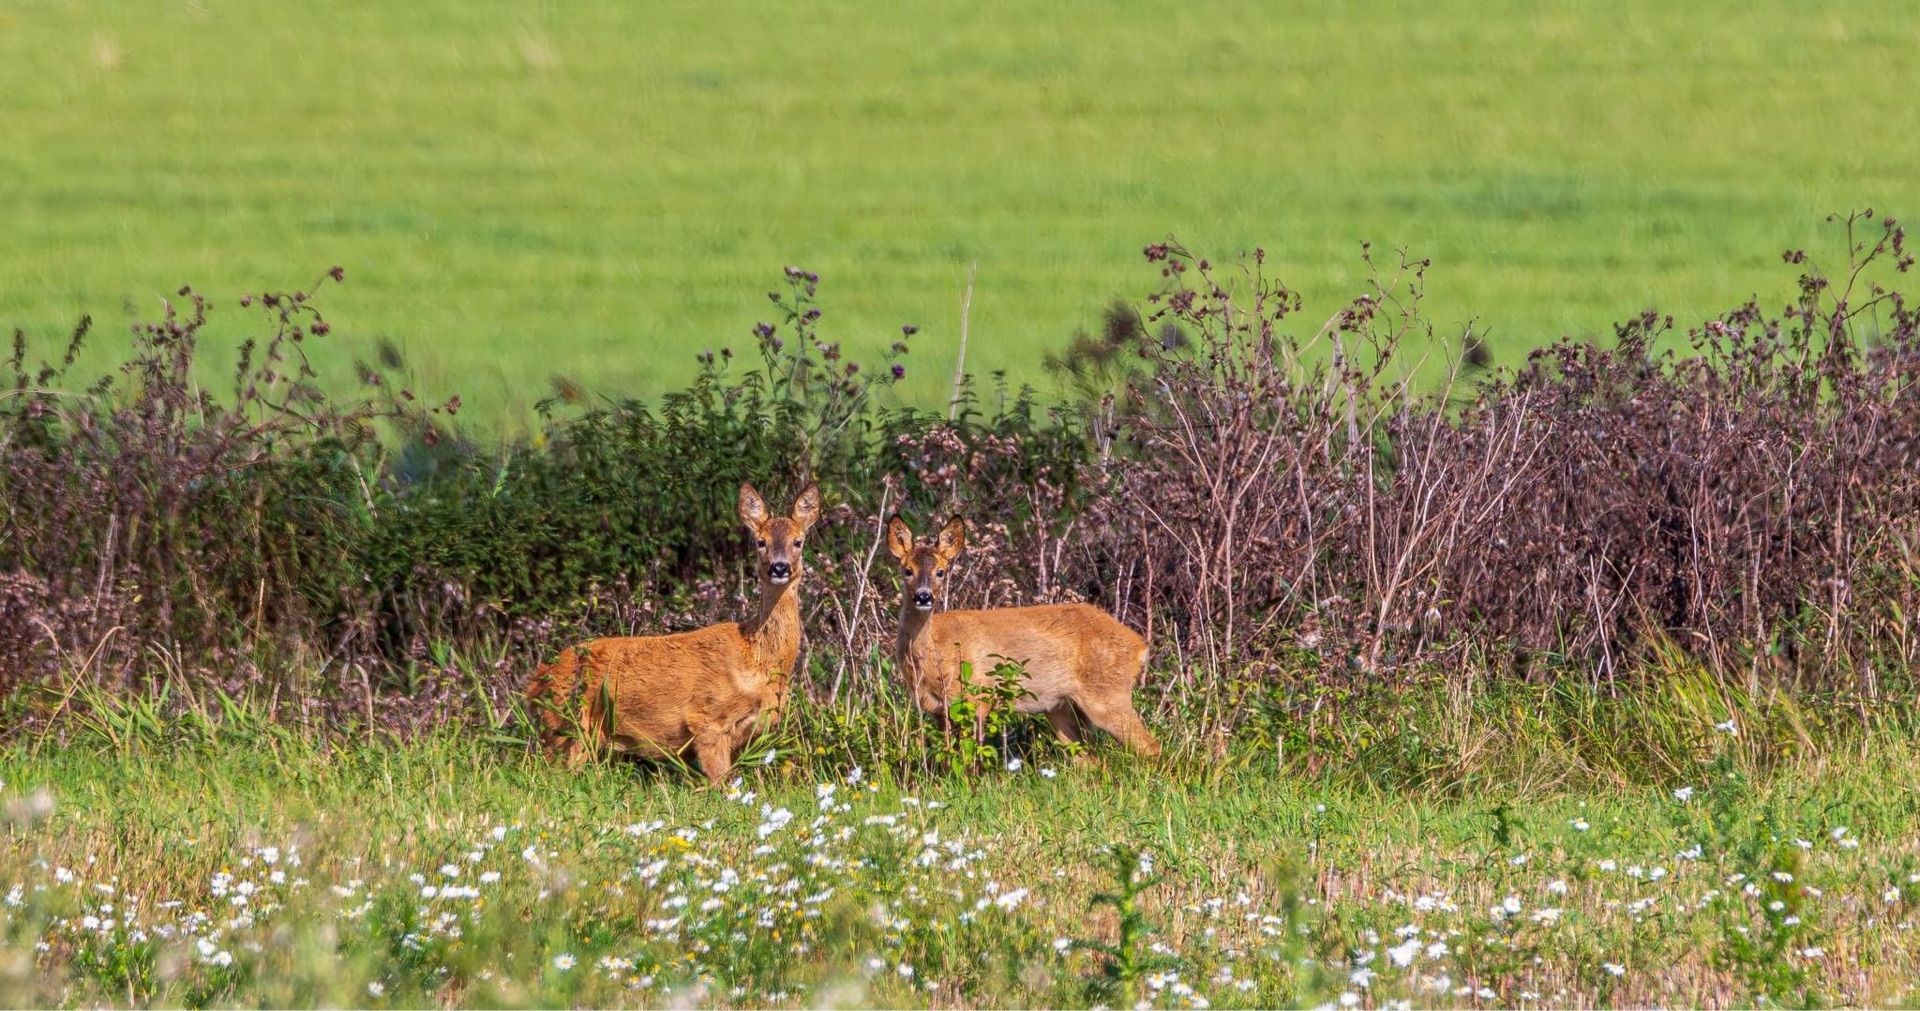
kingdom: Animalia
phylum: Chordata
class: Mammalia
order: Artiodactyla
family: Cervidae
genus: Capreolus
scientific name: Capreolus capreolus
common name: Rådyr
